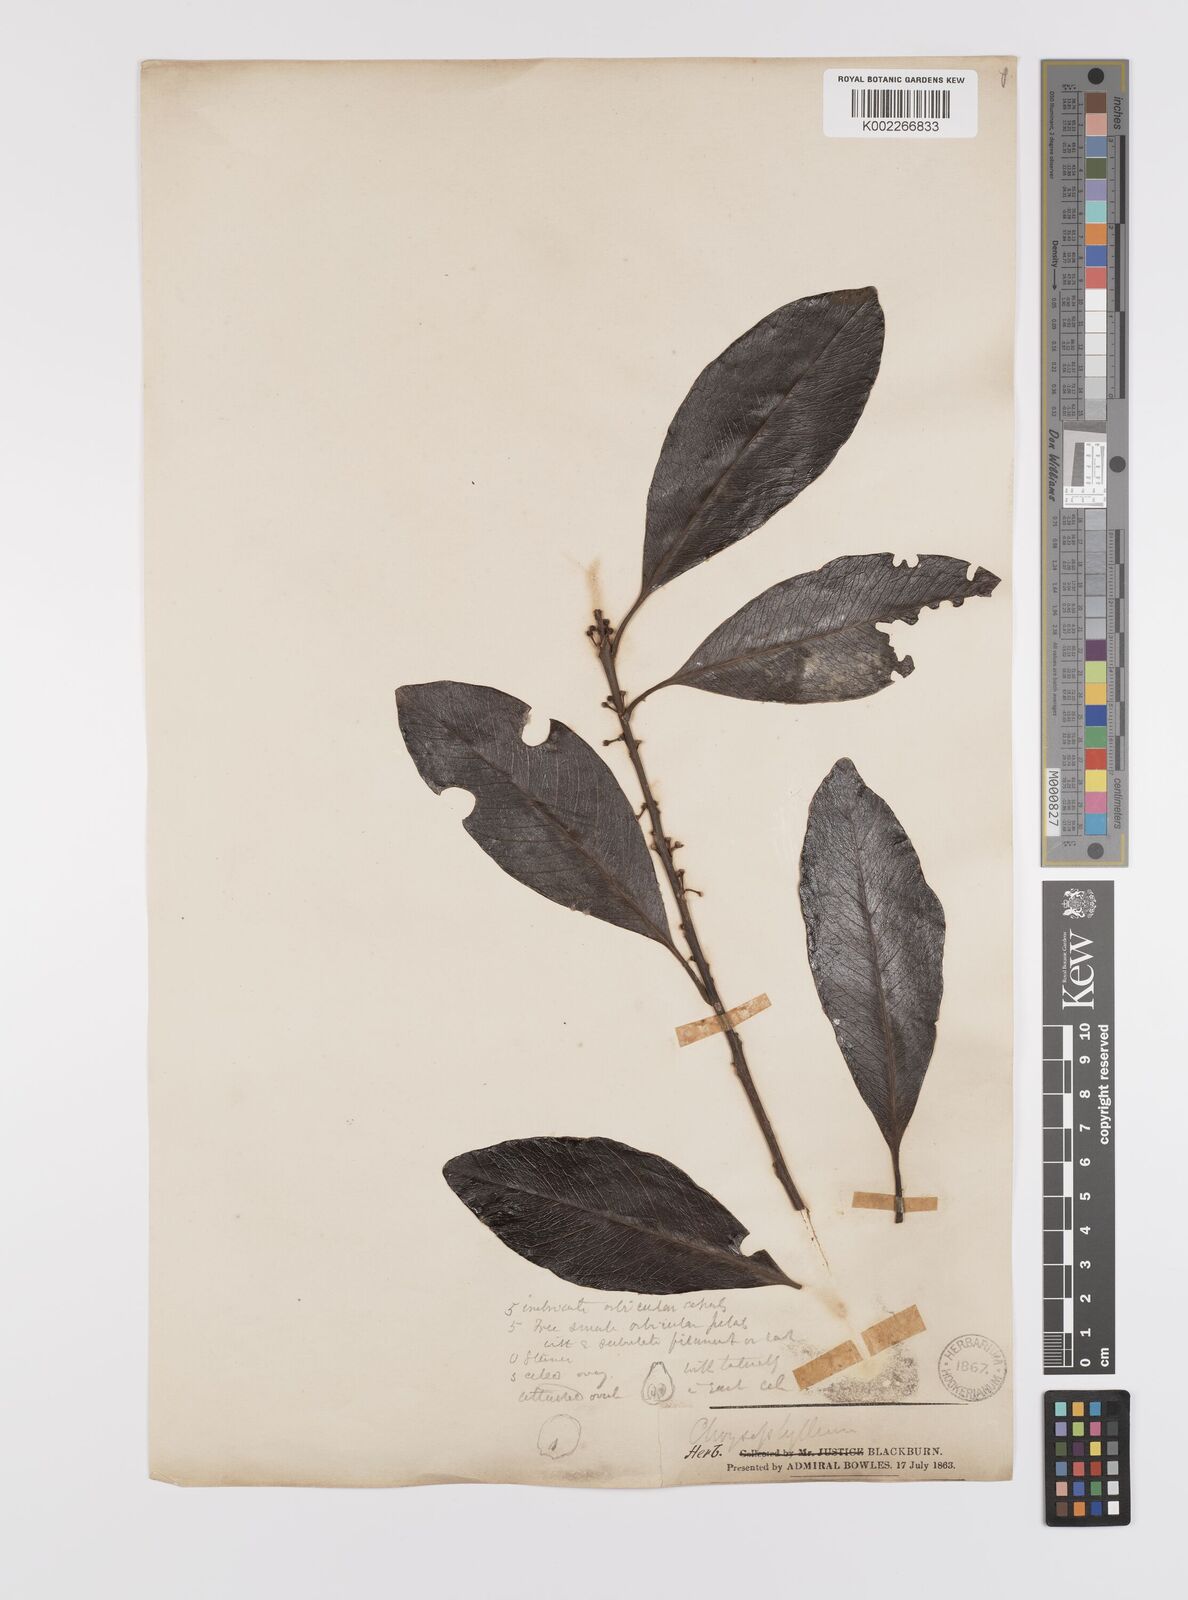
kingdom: Plantae
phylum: Tracheophyta
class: Magnoliopsida
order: Celastrales
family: Celastraceae
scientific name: Celastraceae
